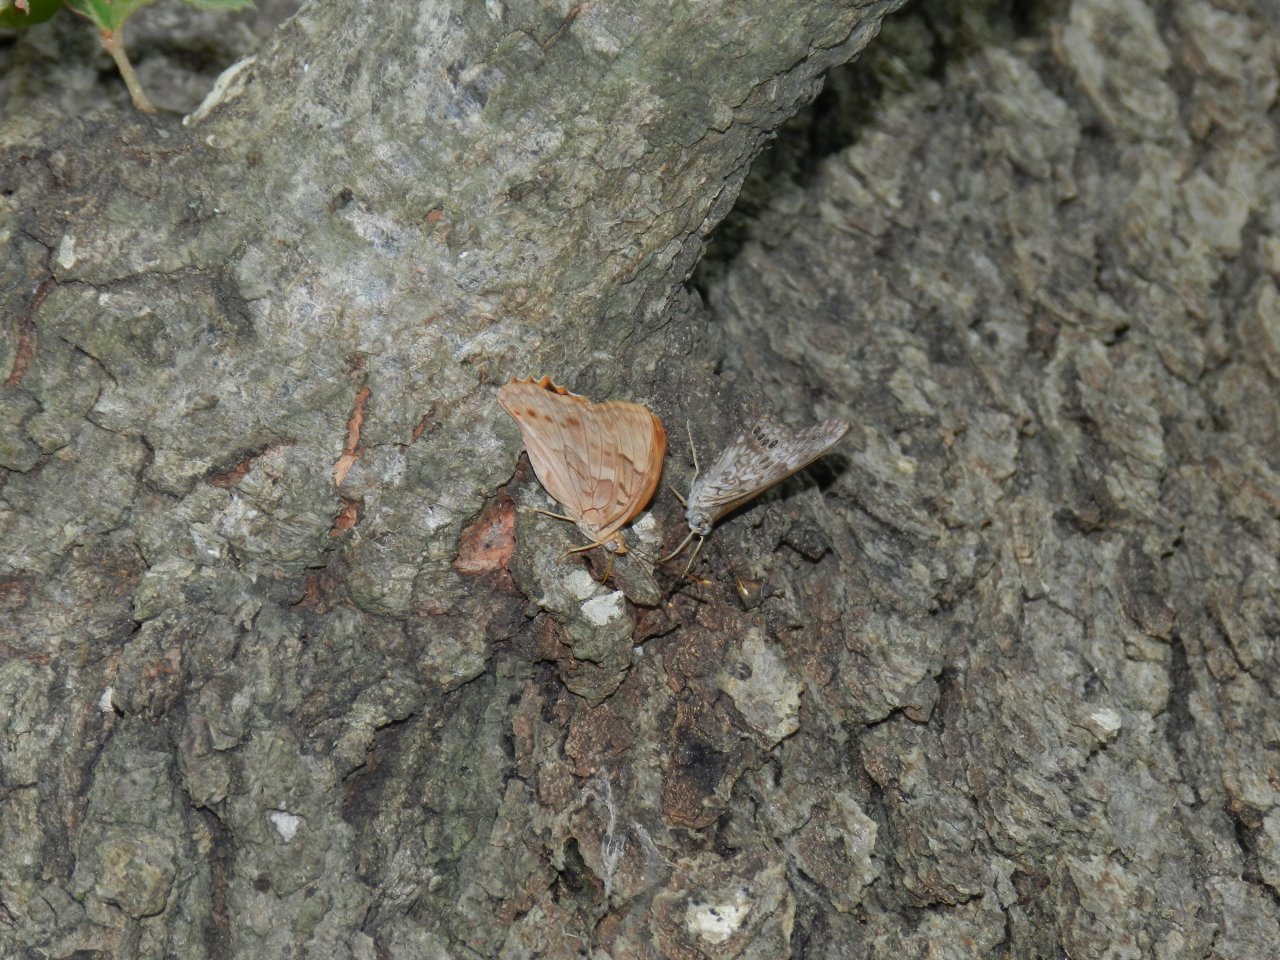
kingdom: Animalia
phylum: Arthropoda
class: Insecta
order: Lepidoptera
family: Nymphalidae
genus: Asterocampa
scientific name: Asterocampa celtis
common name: Hackberry Emperor
